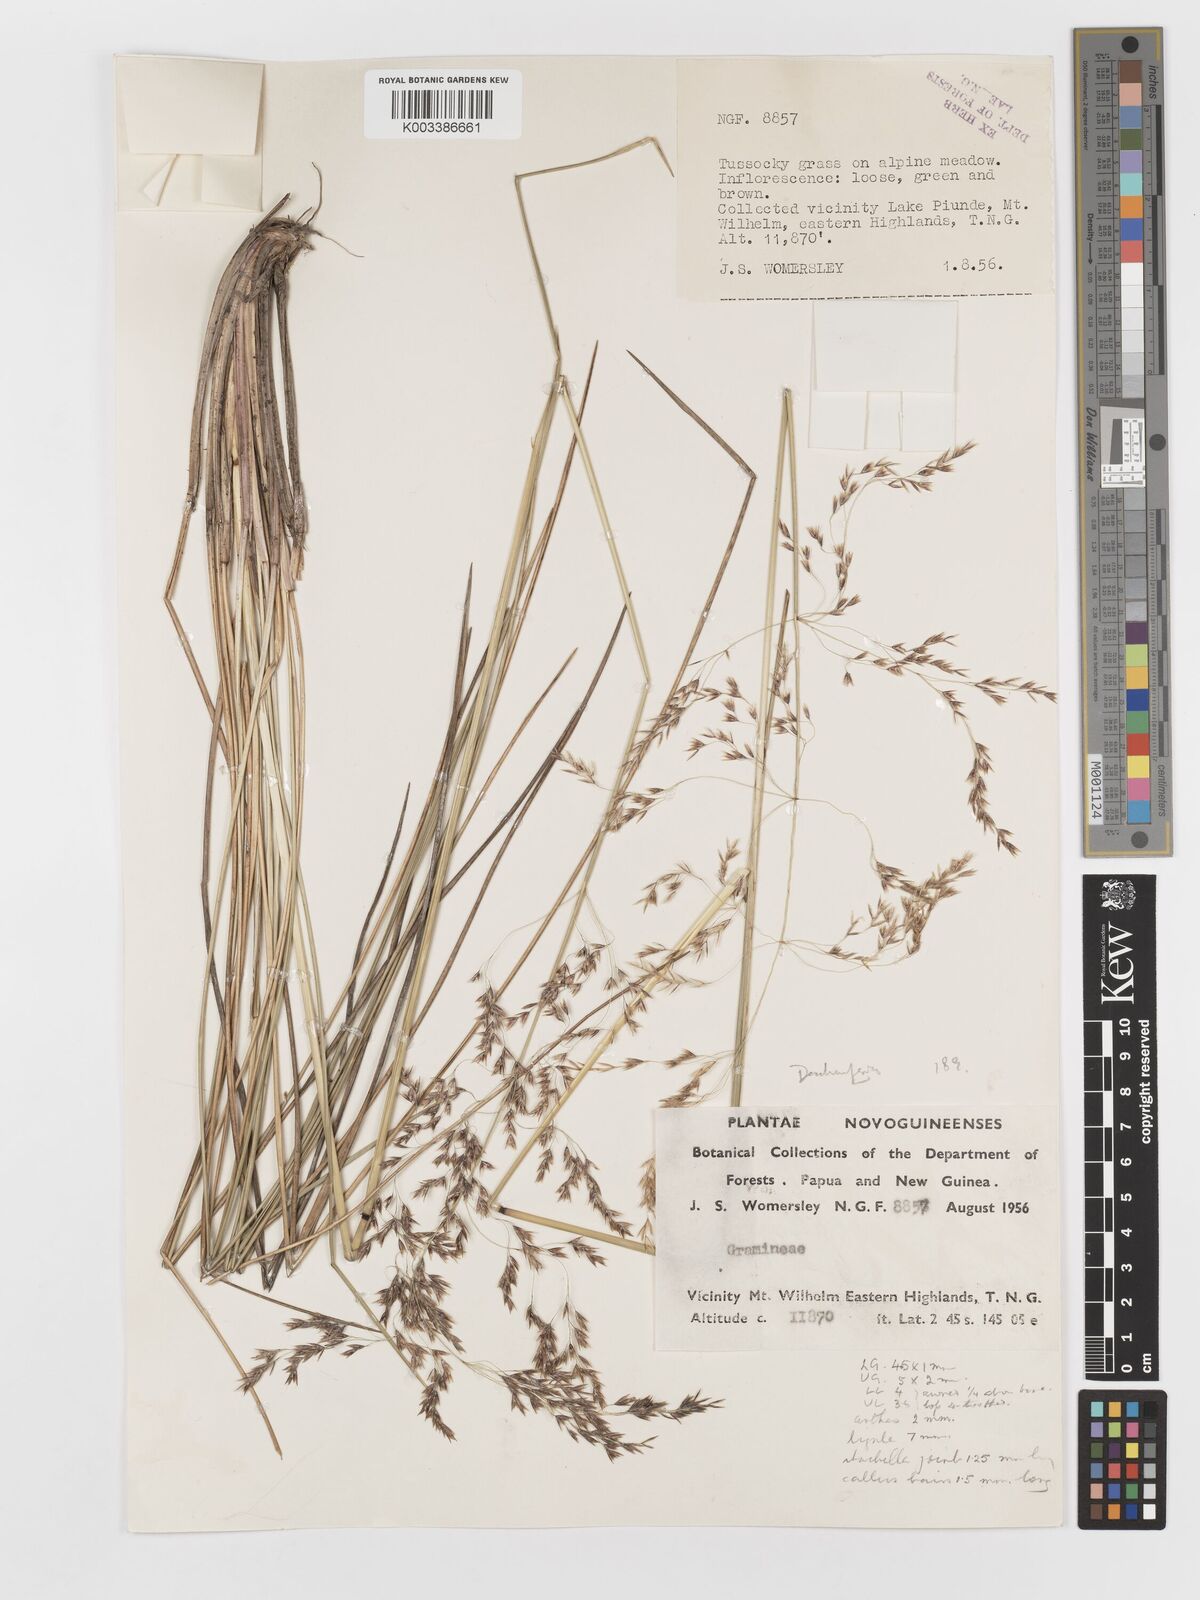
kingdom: Plantae
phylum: Tracheophyta
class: Liliopsida
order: Poales
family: Poaceae
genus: Deschampsia
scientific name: Deschampsia klossii
